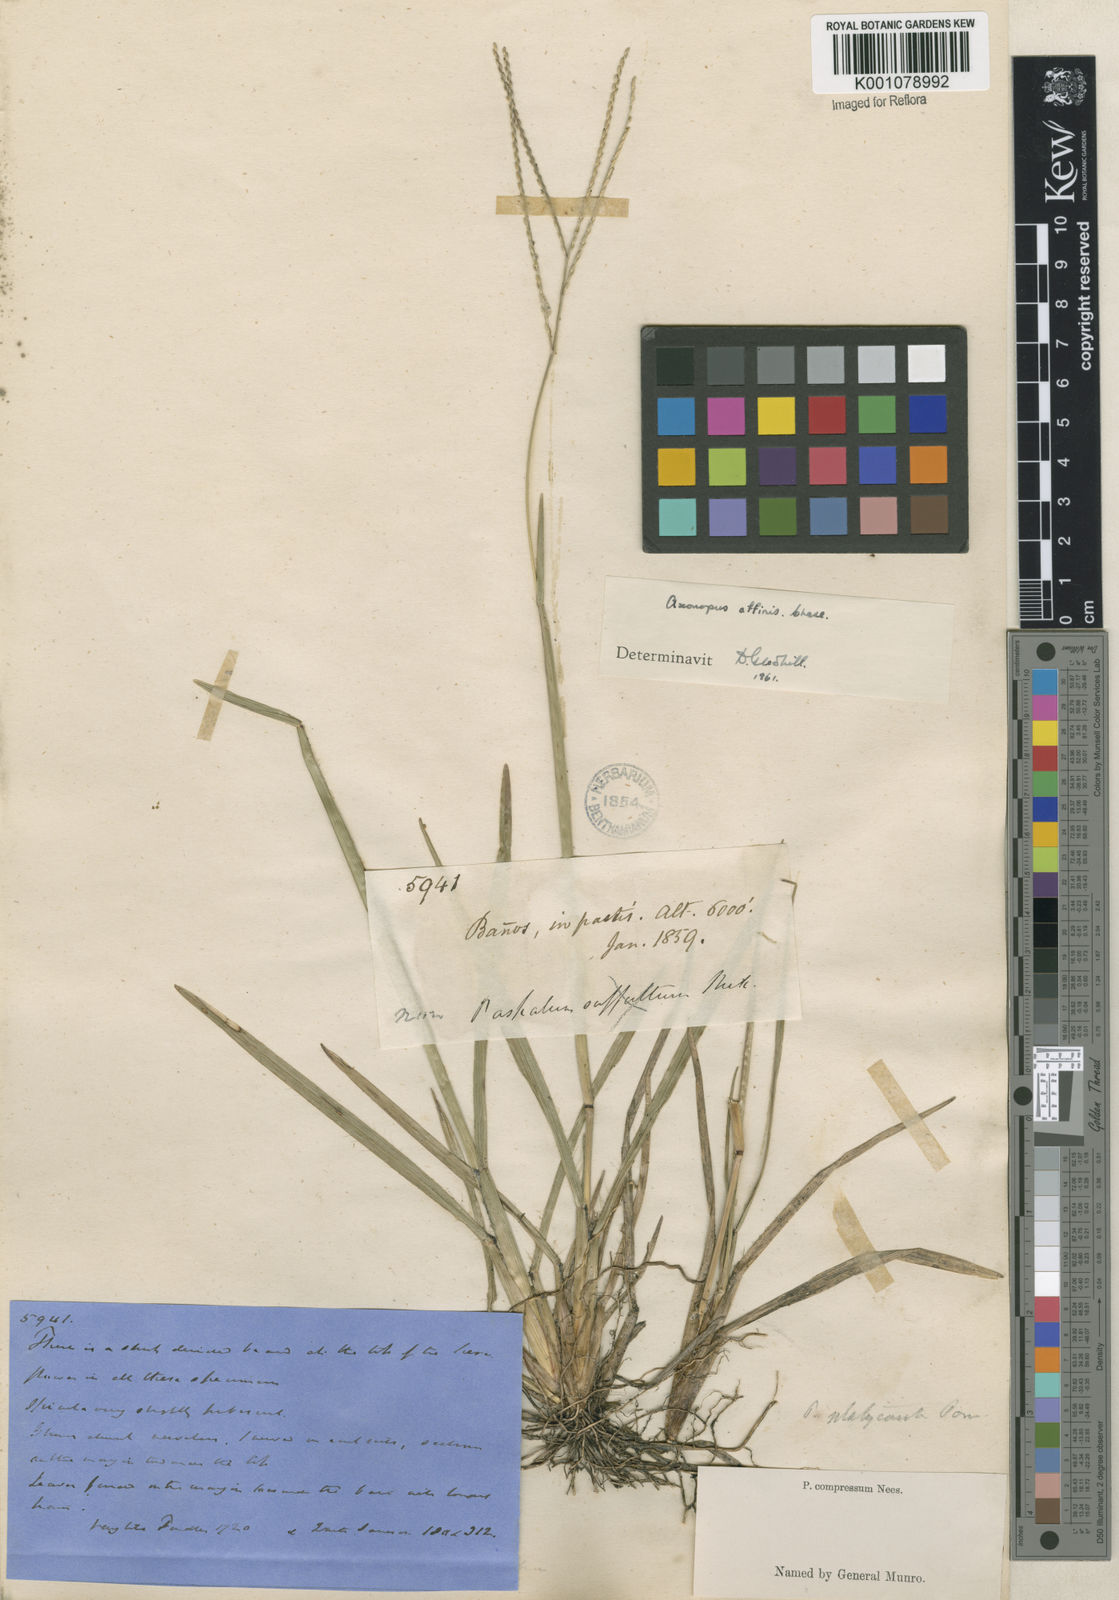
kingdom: Plantae
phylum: Tracheophyta
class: Liliopsida
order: Poales
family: Poaceae
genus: Axonopus
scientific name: Axonopus fissifolius
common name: Common carpetgrass
